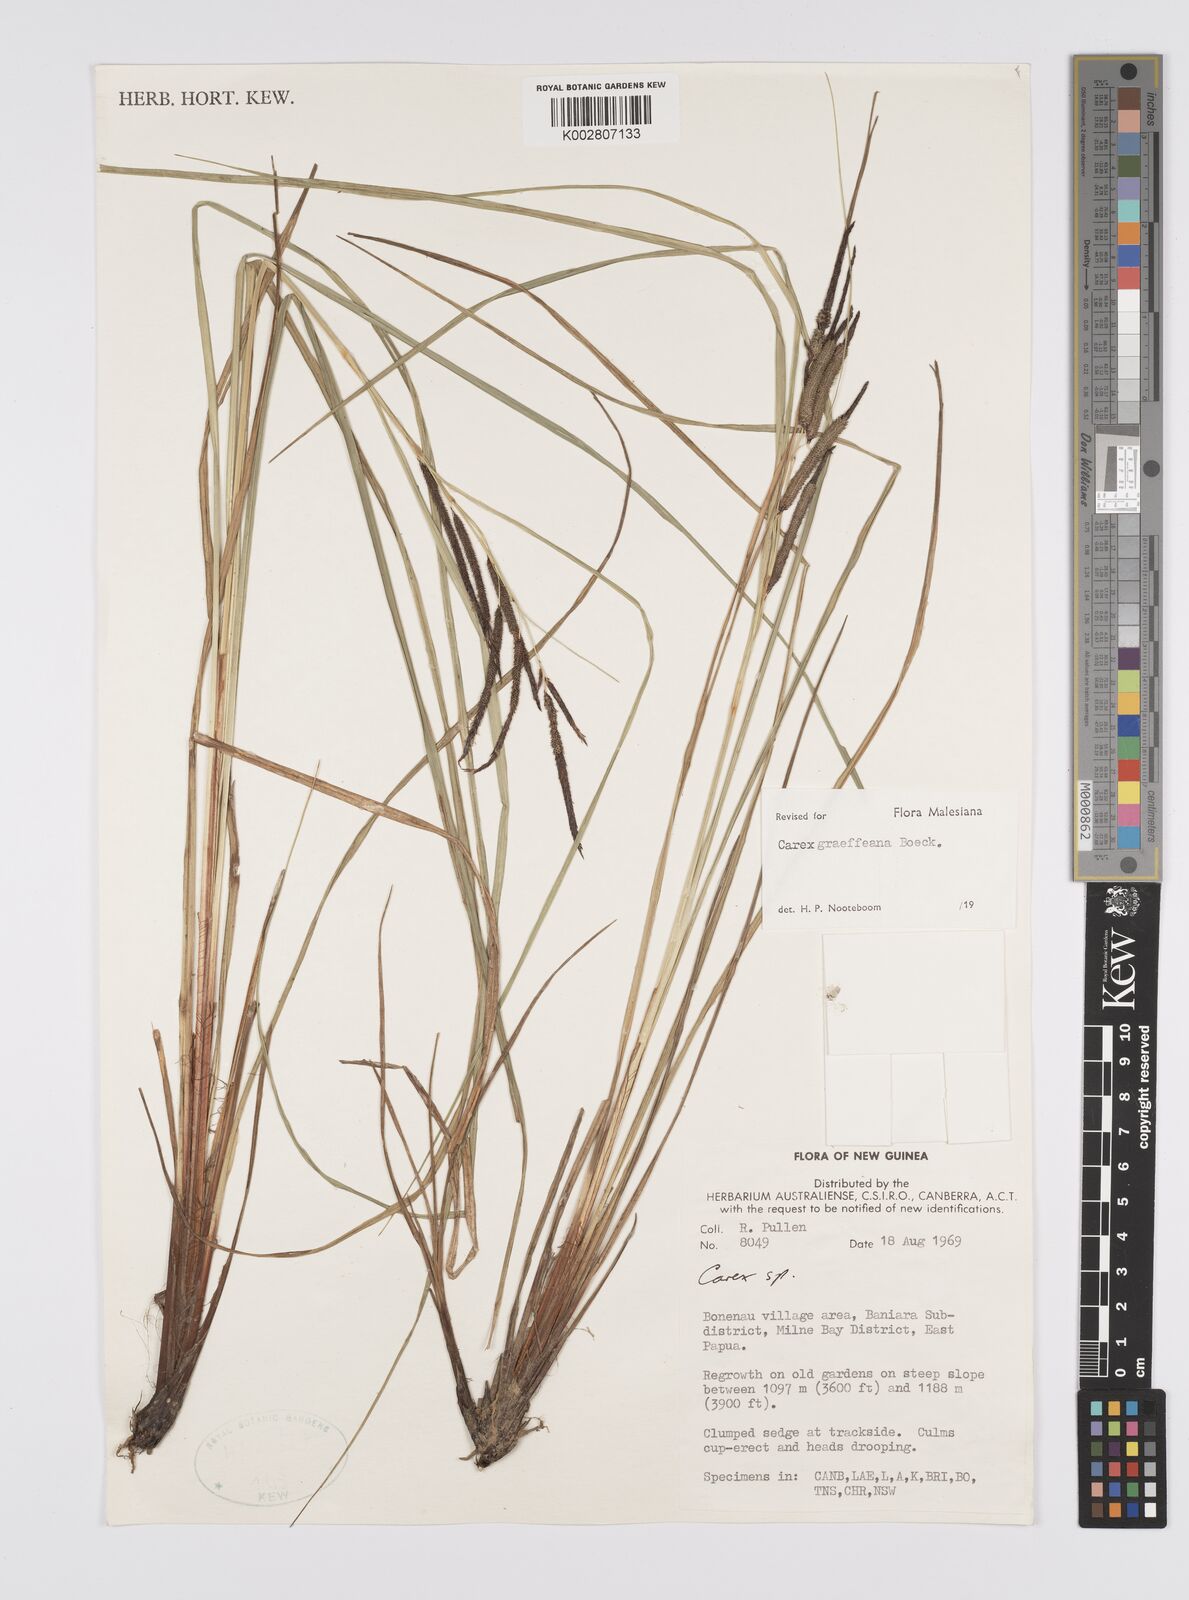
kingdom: Plantae
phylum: Tracheophyta
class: Liliopsida
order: Poales
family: Cyperaceae
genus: Carex
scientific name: Carex graeffeana
